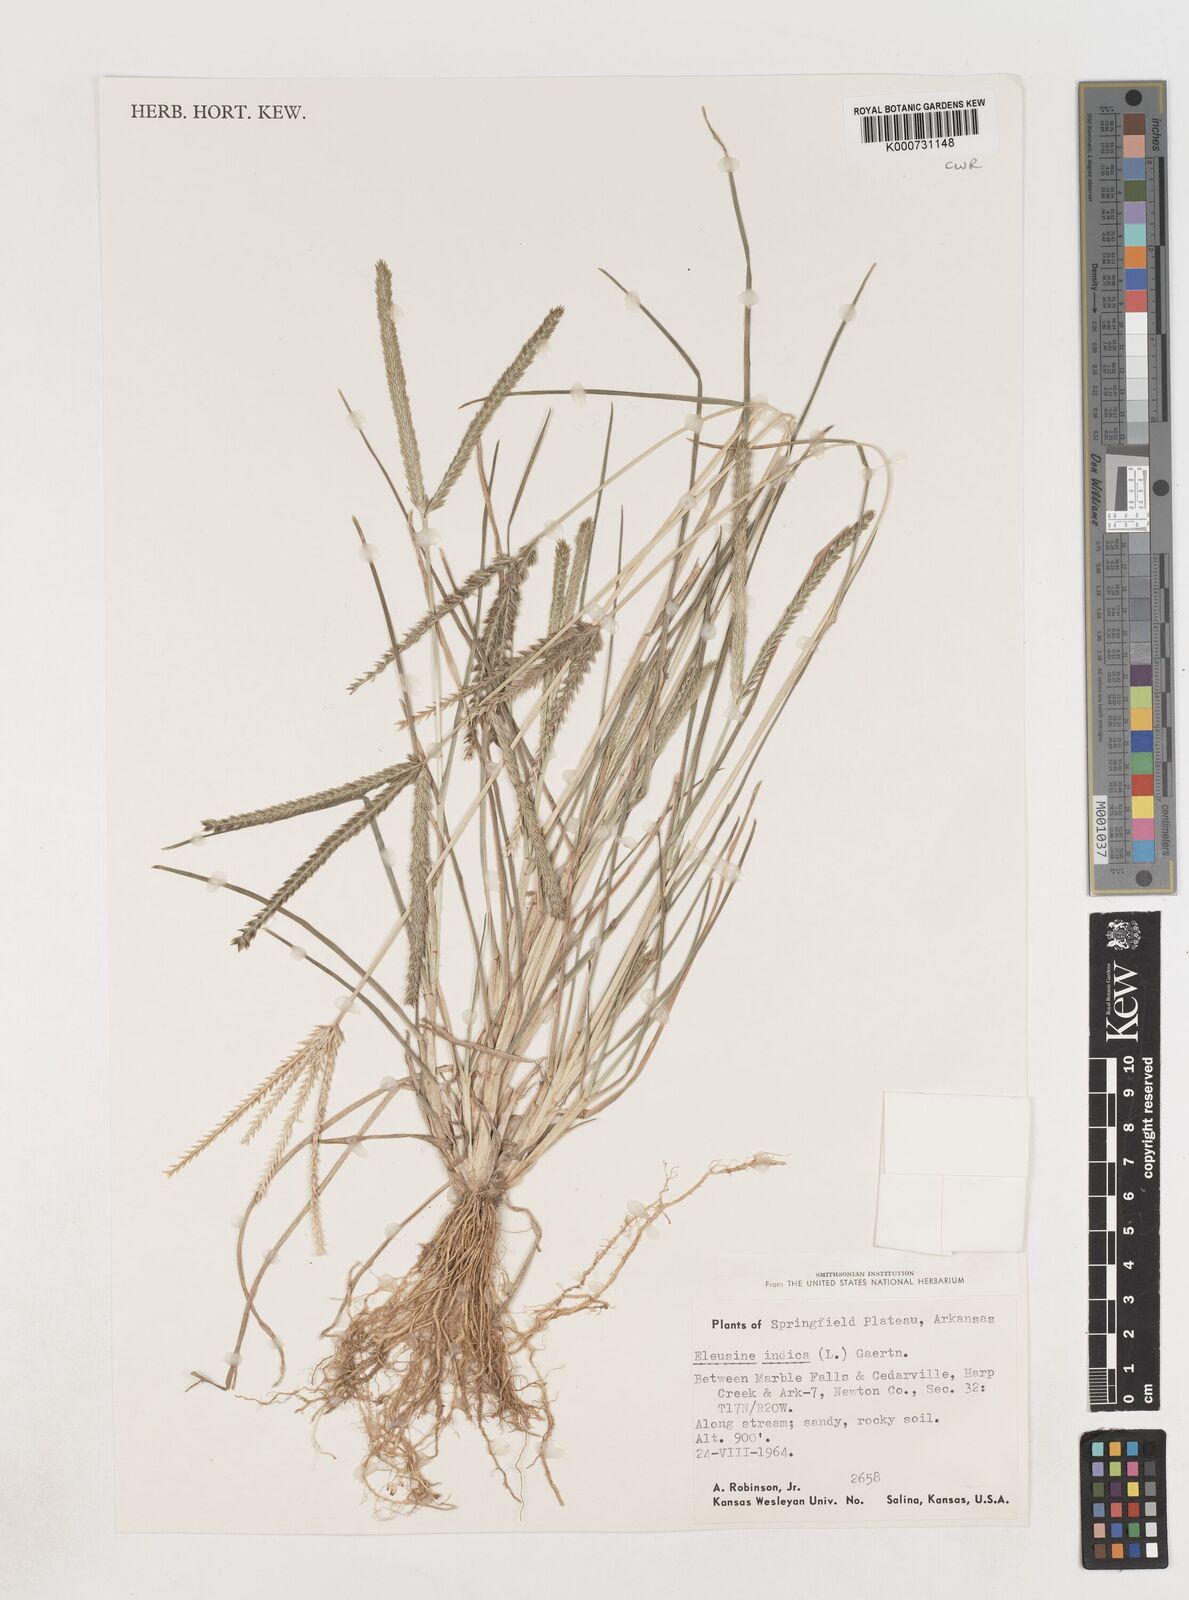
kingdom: Plantae
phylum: Tracheophyta
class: Liliopsida
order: Poales
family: Poaceae
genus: Eleusine
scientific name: Eleusine indica
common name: Yard-grass
